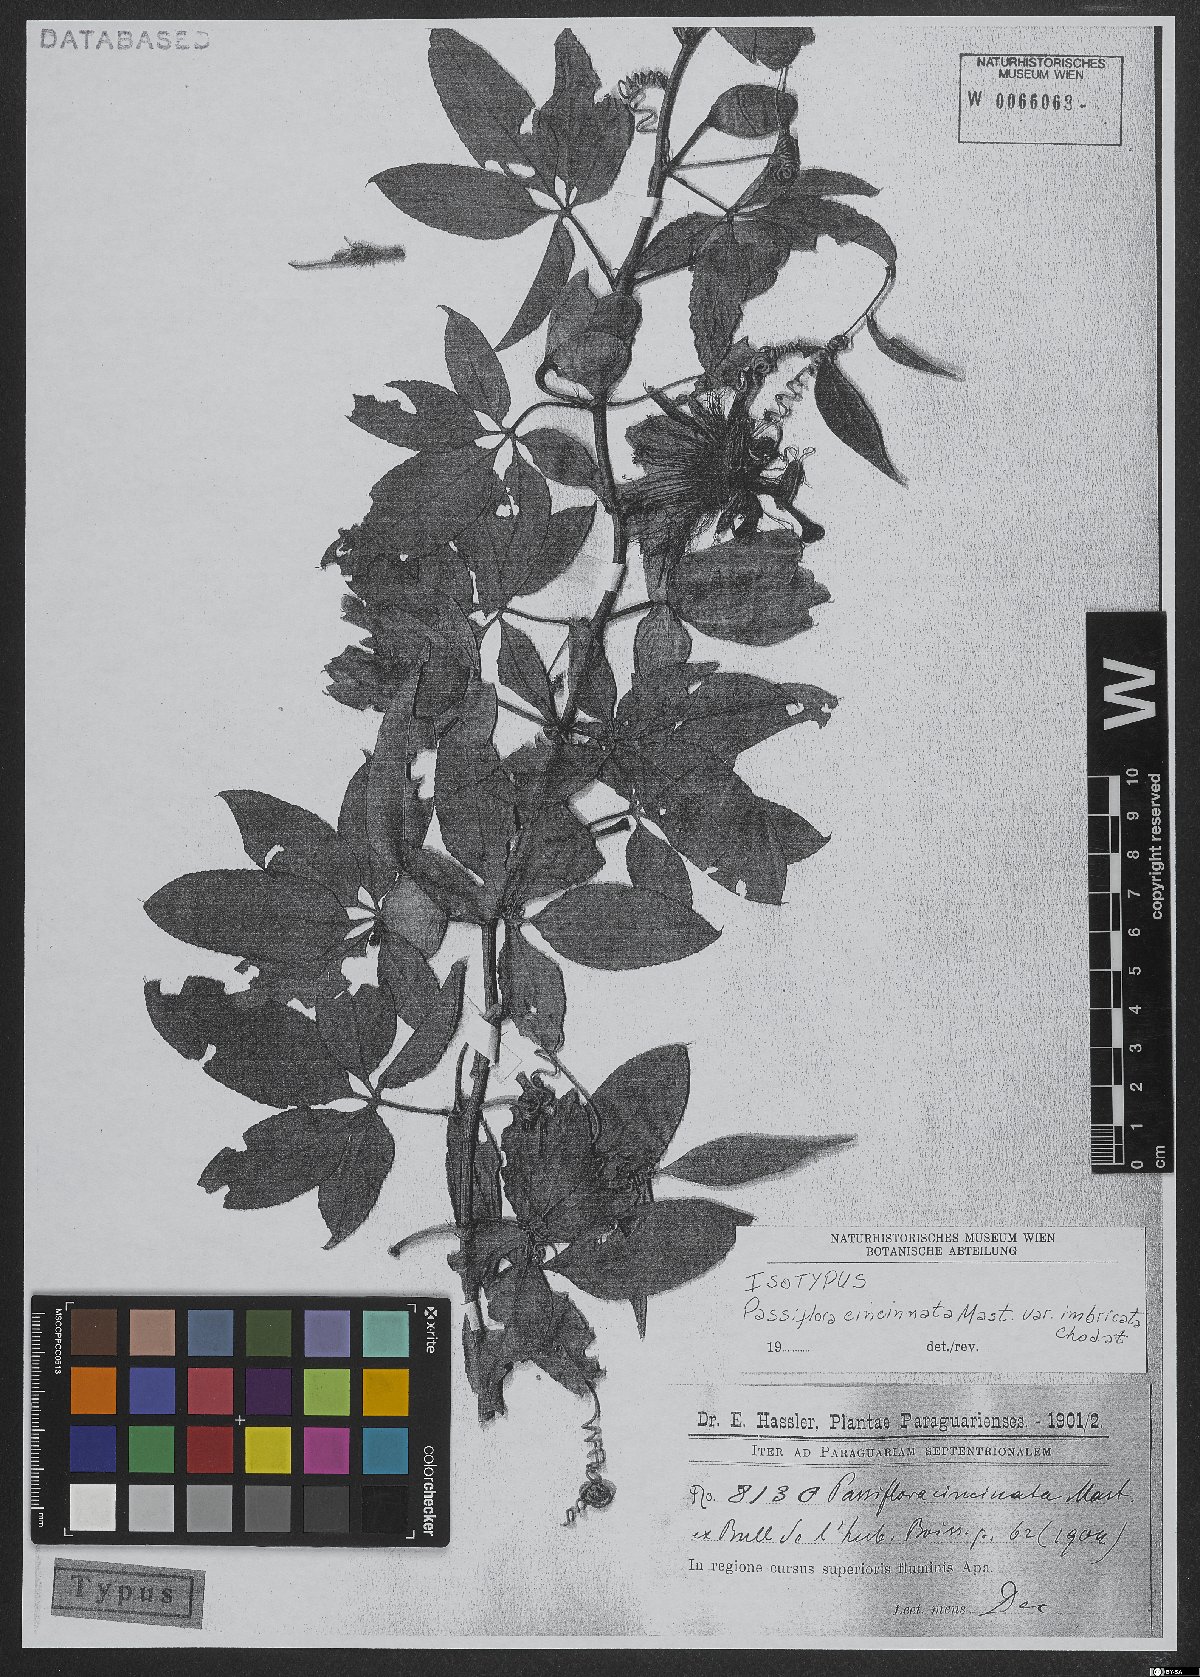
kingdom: Plantae
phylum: Tracheophyta
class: Magnoliopsida
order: Malpighiales
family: Passifloraceae
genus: Passiflora
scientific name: Passiflora cincinnata
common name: Crato passionvine
